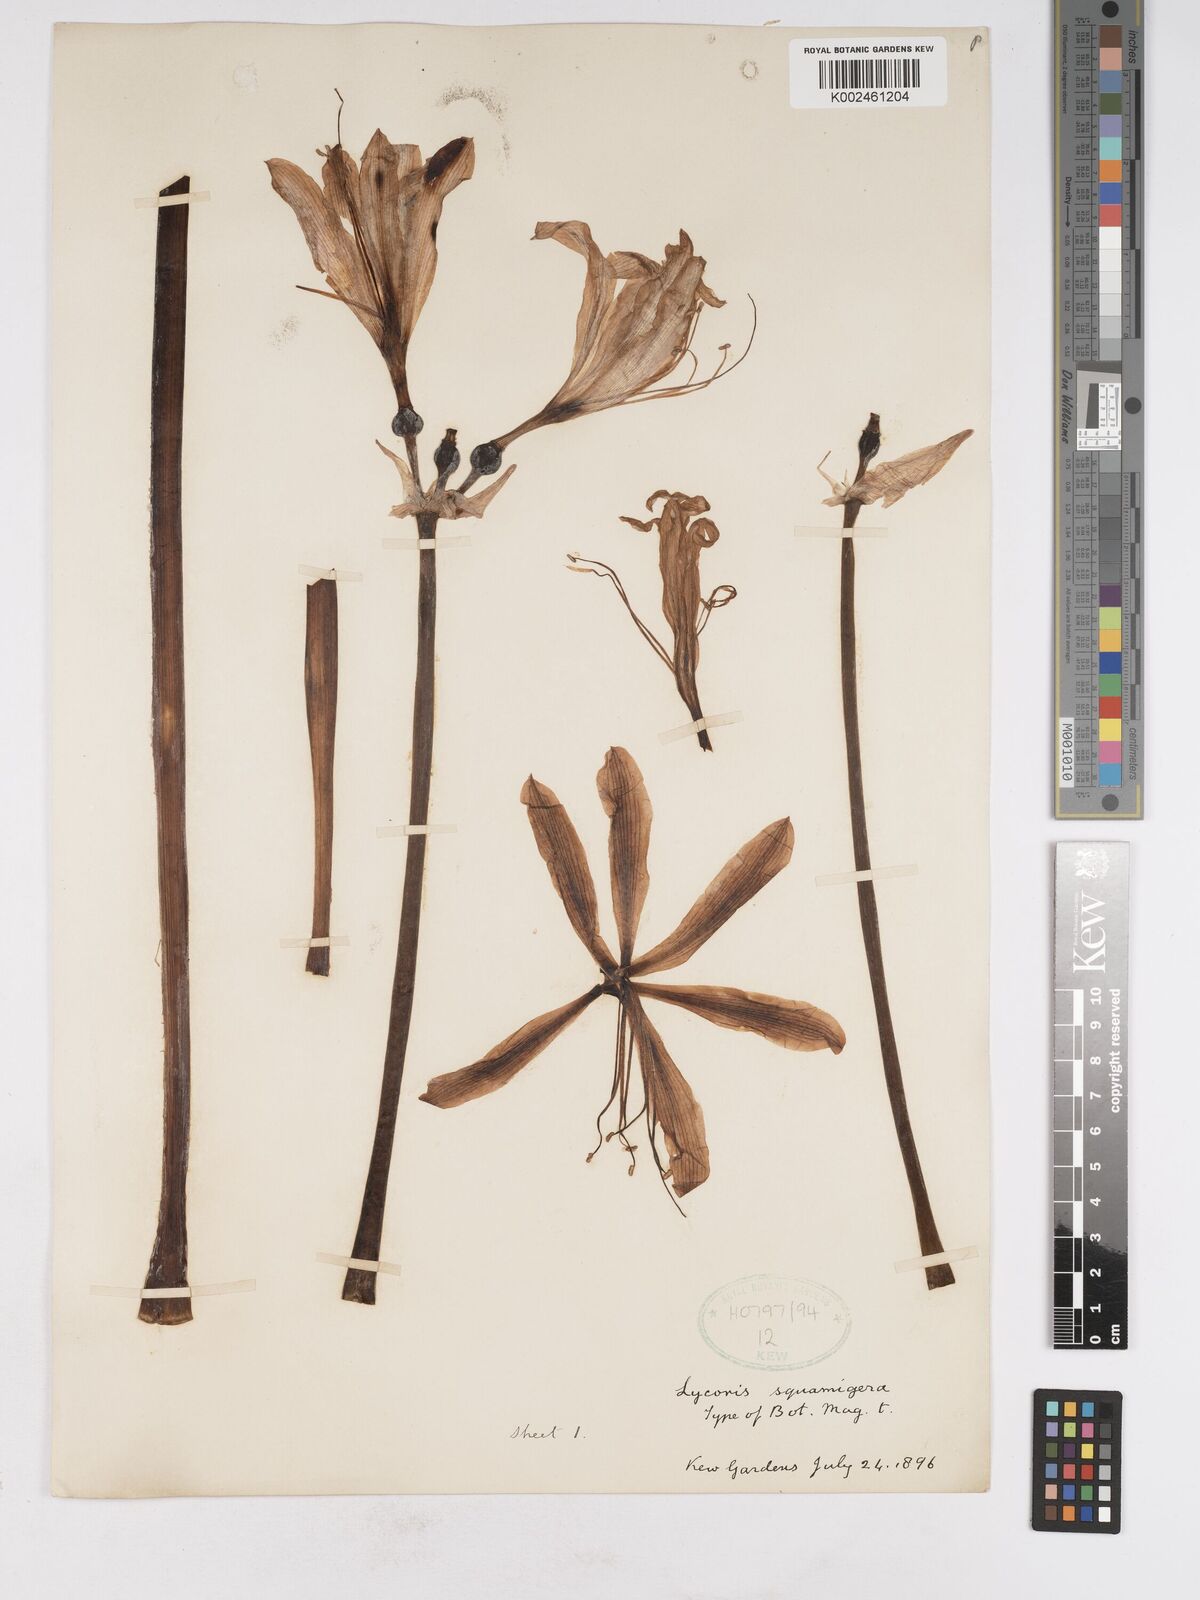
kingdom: Plantae
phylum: Tracheophyta
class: Liliopsida
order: Asparagales
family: Amaryllidaceae
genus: Lycoris
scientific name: Lycoris squamigera
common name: Magic-lily
